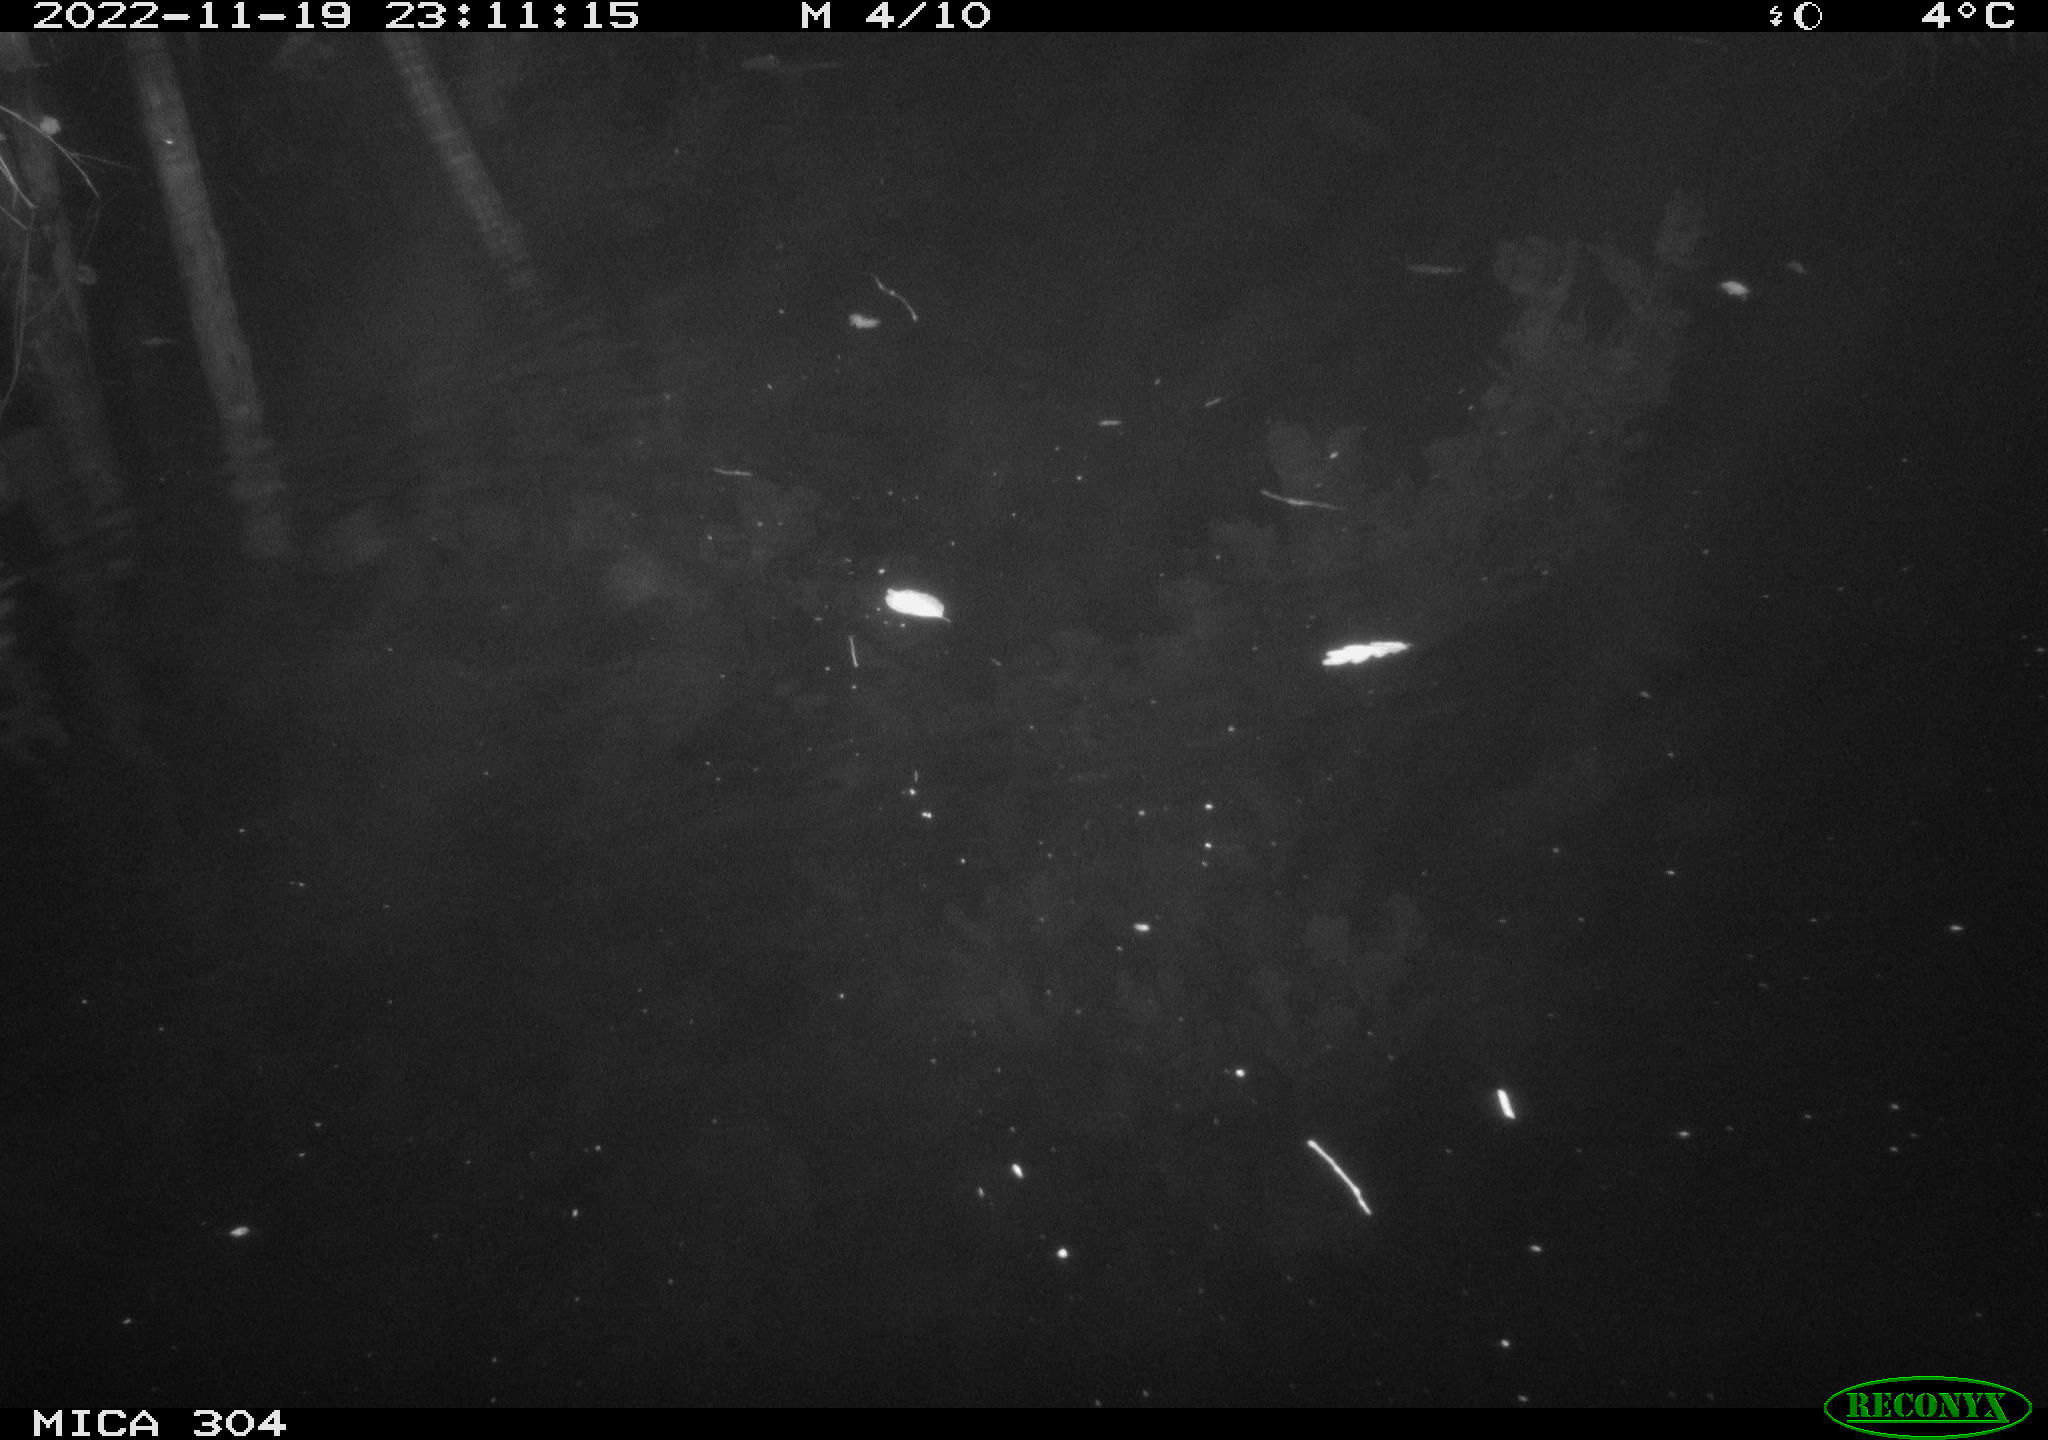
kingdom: Animalia
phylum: Chordata
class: Mammalia
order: Rodentia
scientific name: Rodentia
